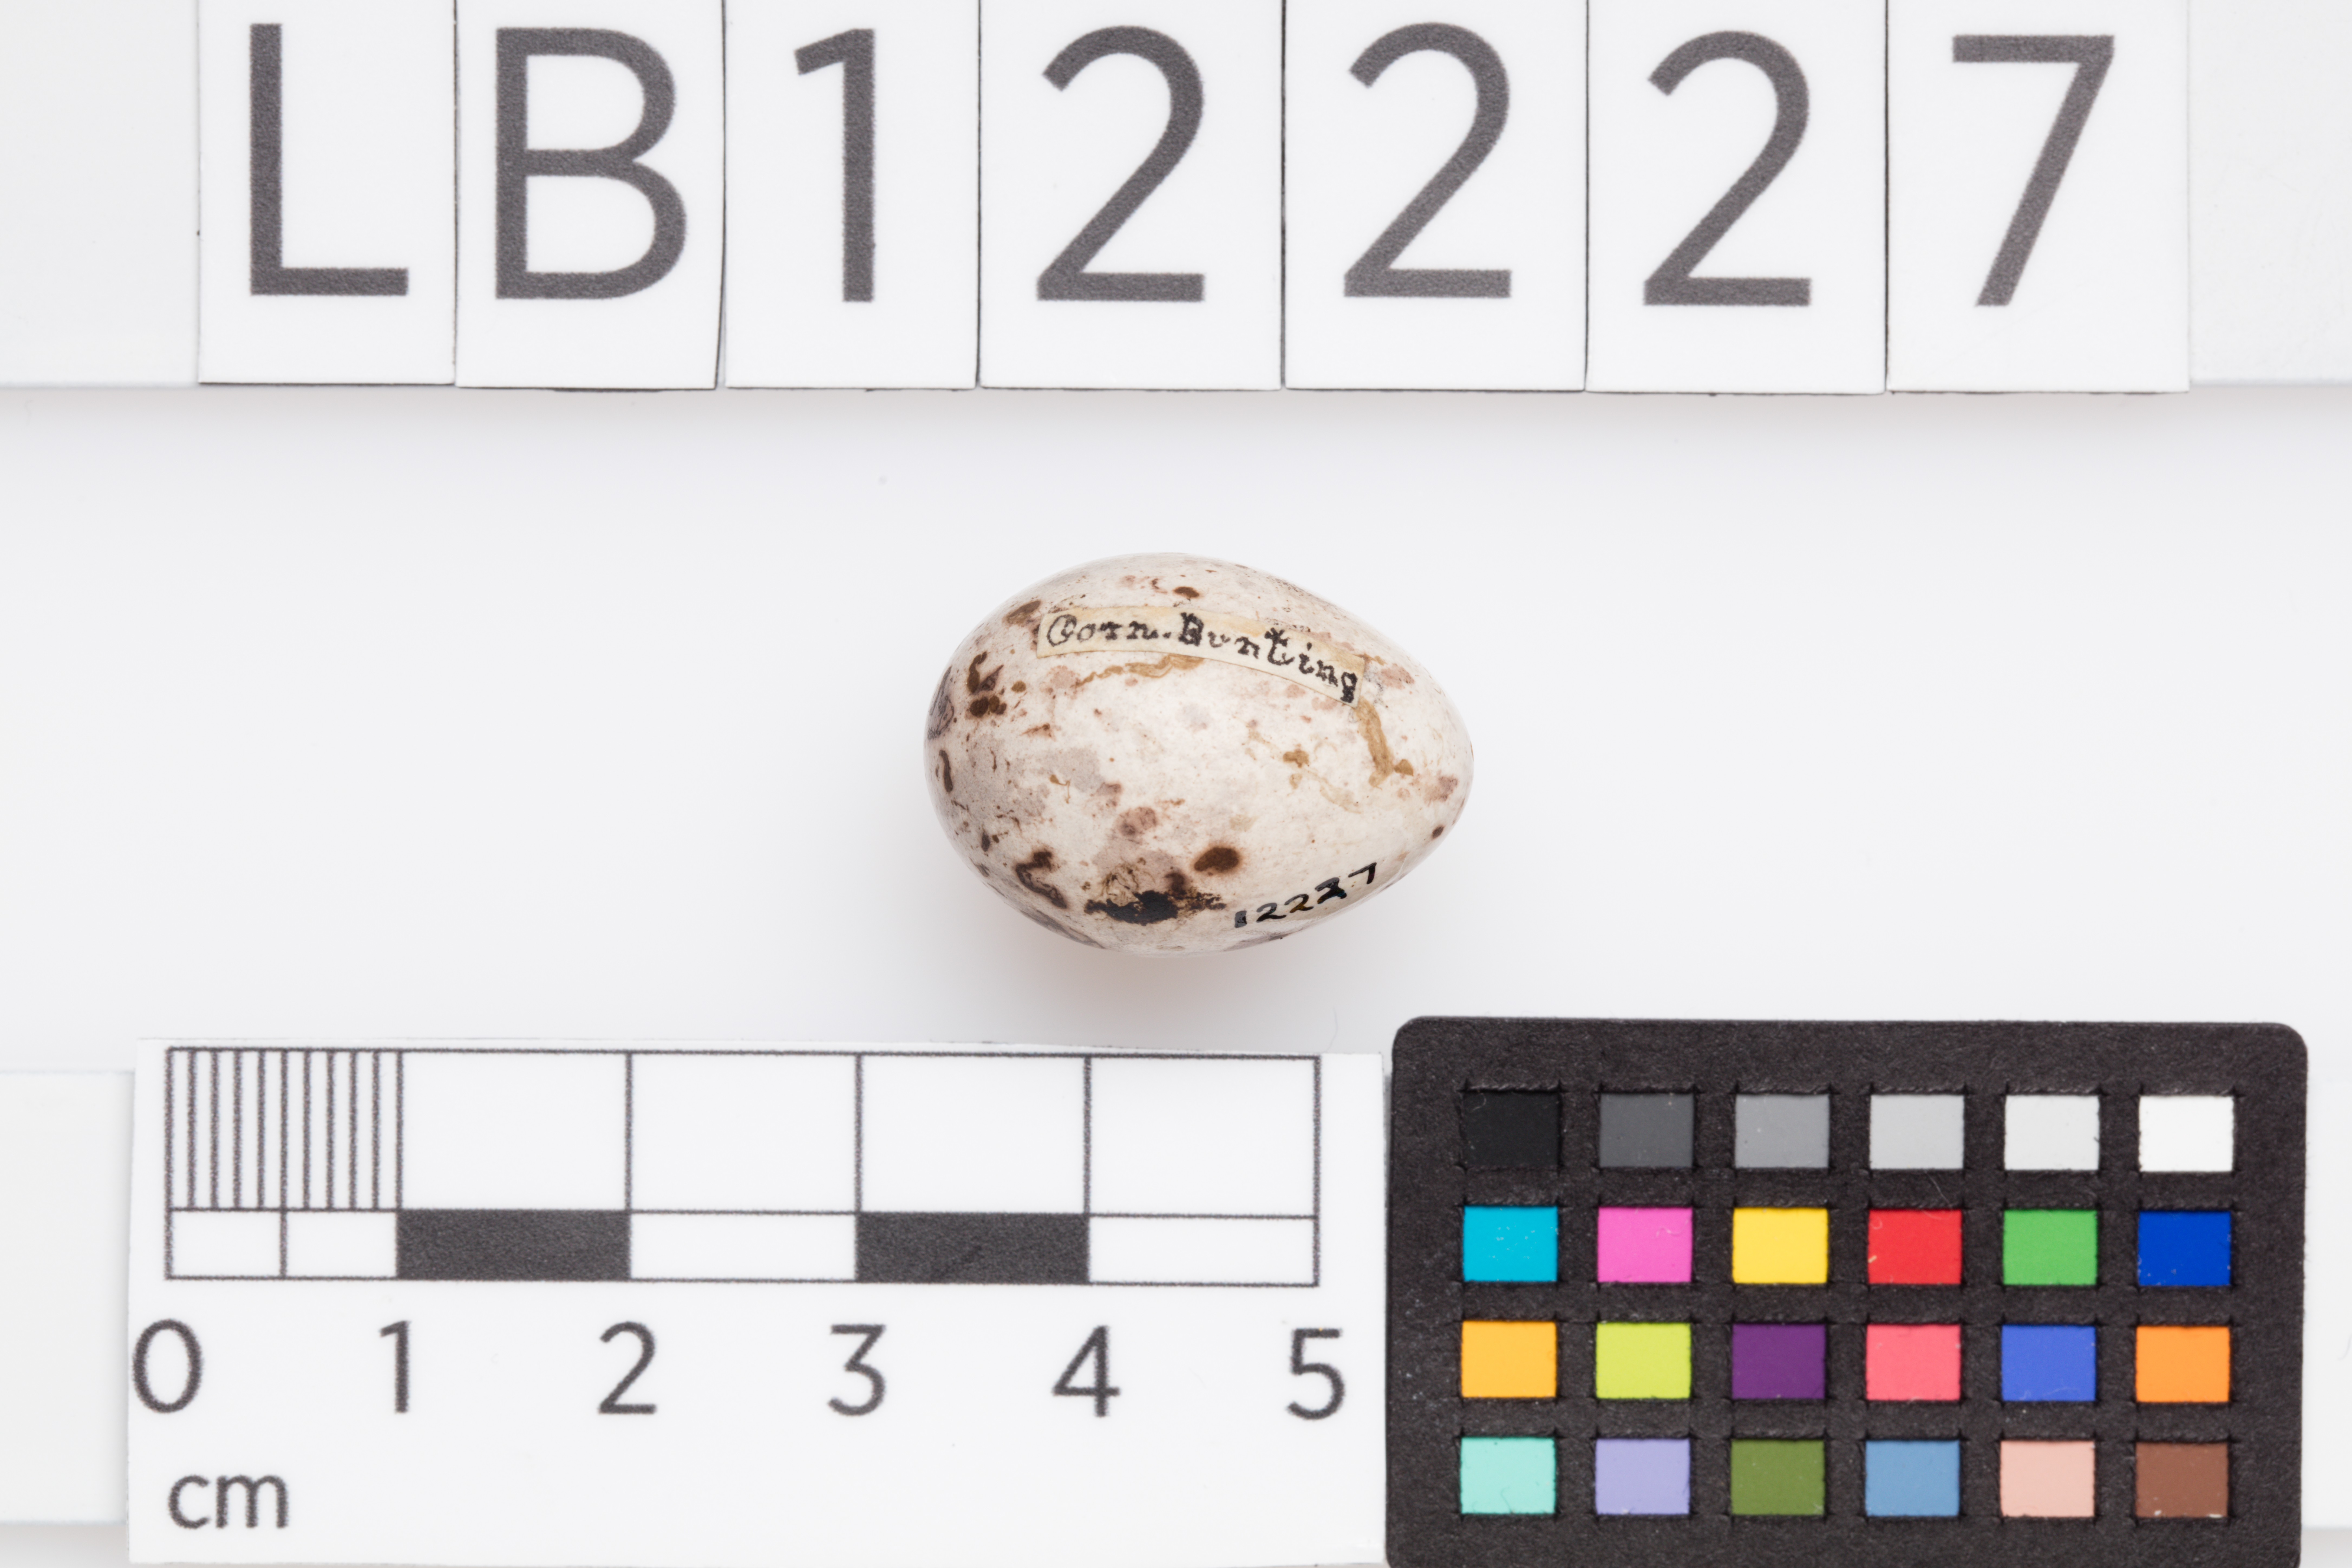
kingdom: Animalia
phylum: Chordata
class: Aves
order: Passeriformes
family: Emberizidae
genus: Emberiza
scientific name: Emberiza calandra
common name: Corn bunting
